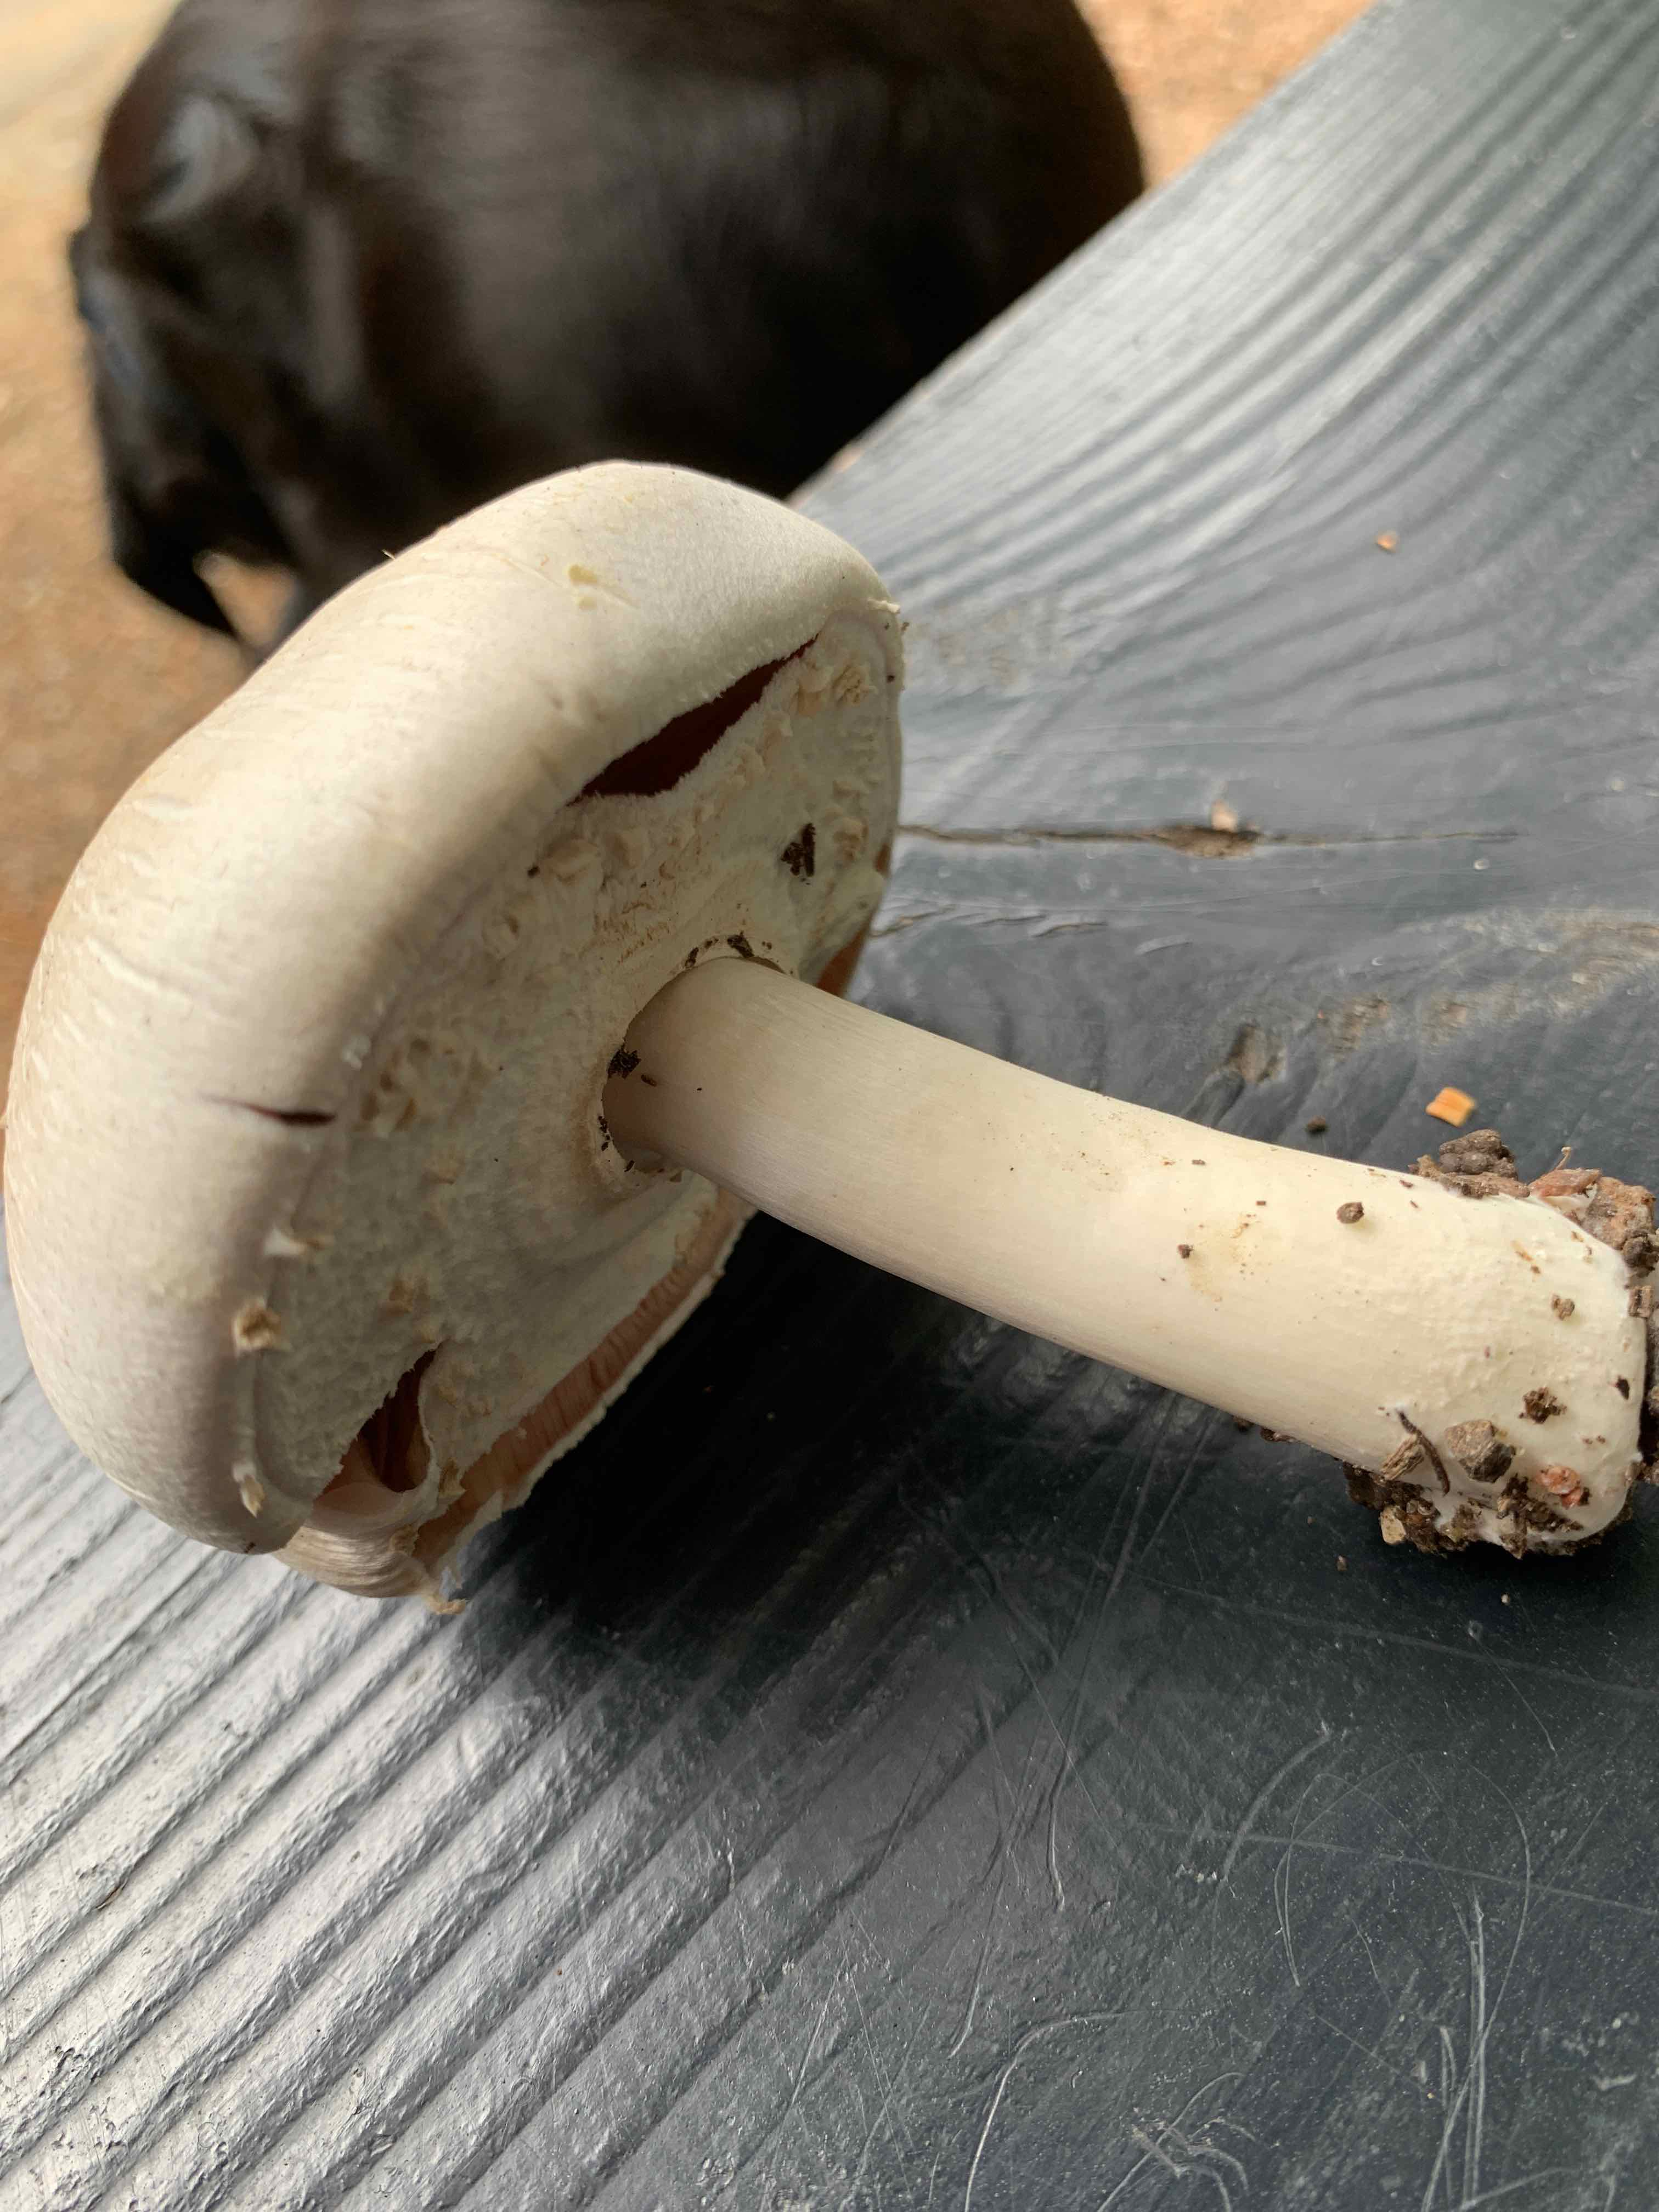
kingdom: Fungi
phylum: Basidiomycota
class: Agaricomycetes
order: Agaricales
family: Agaricaceae
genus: Agaricus
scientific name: Agaricus
